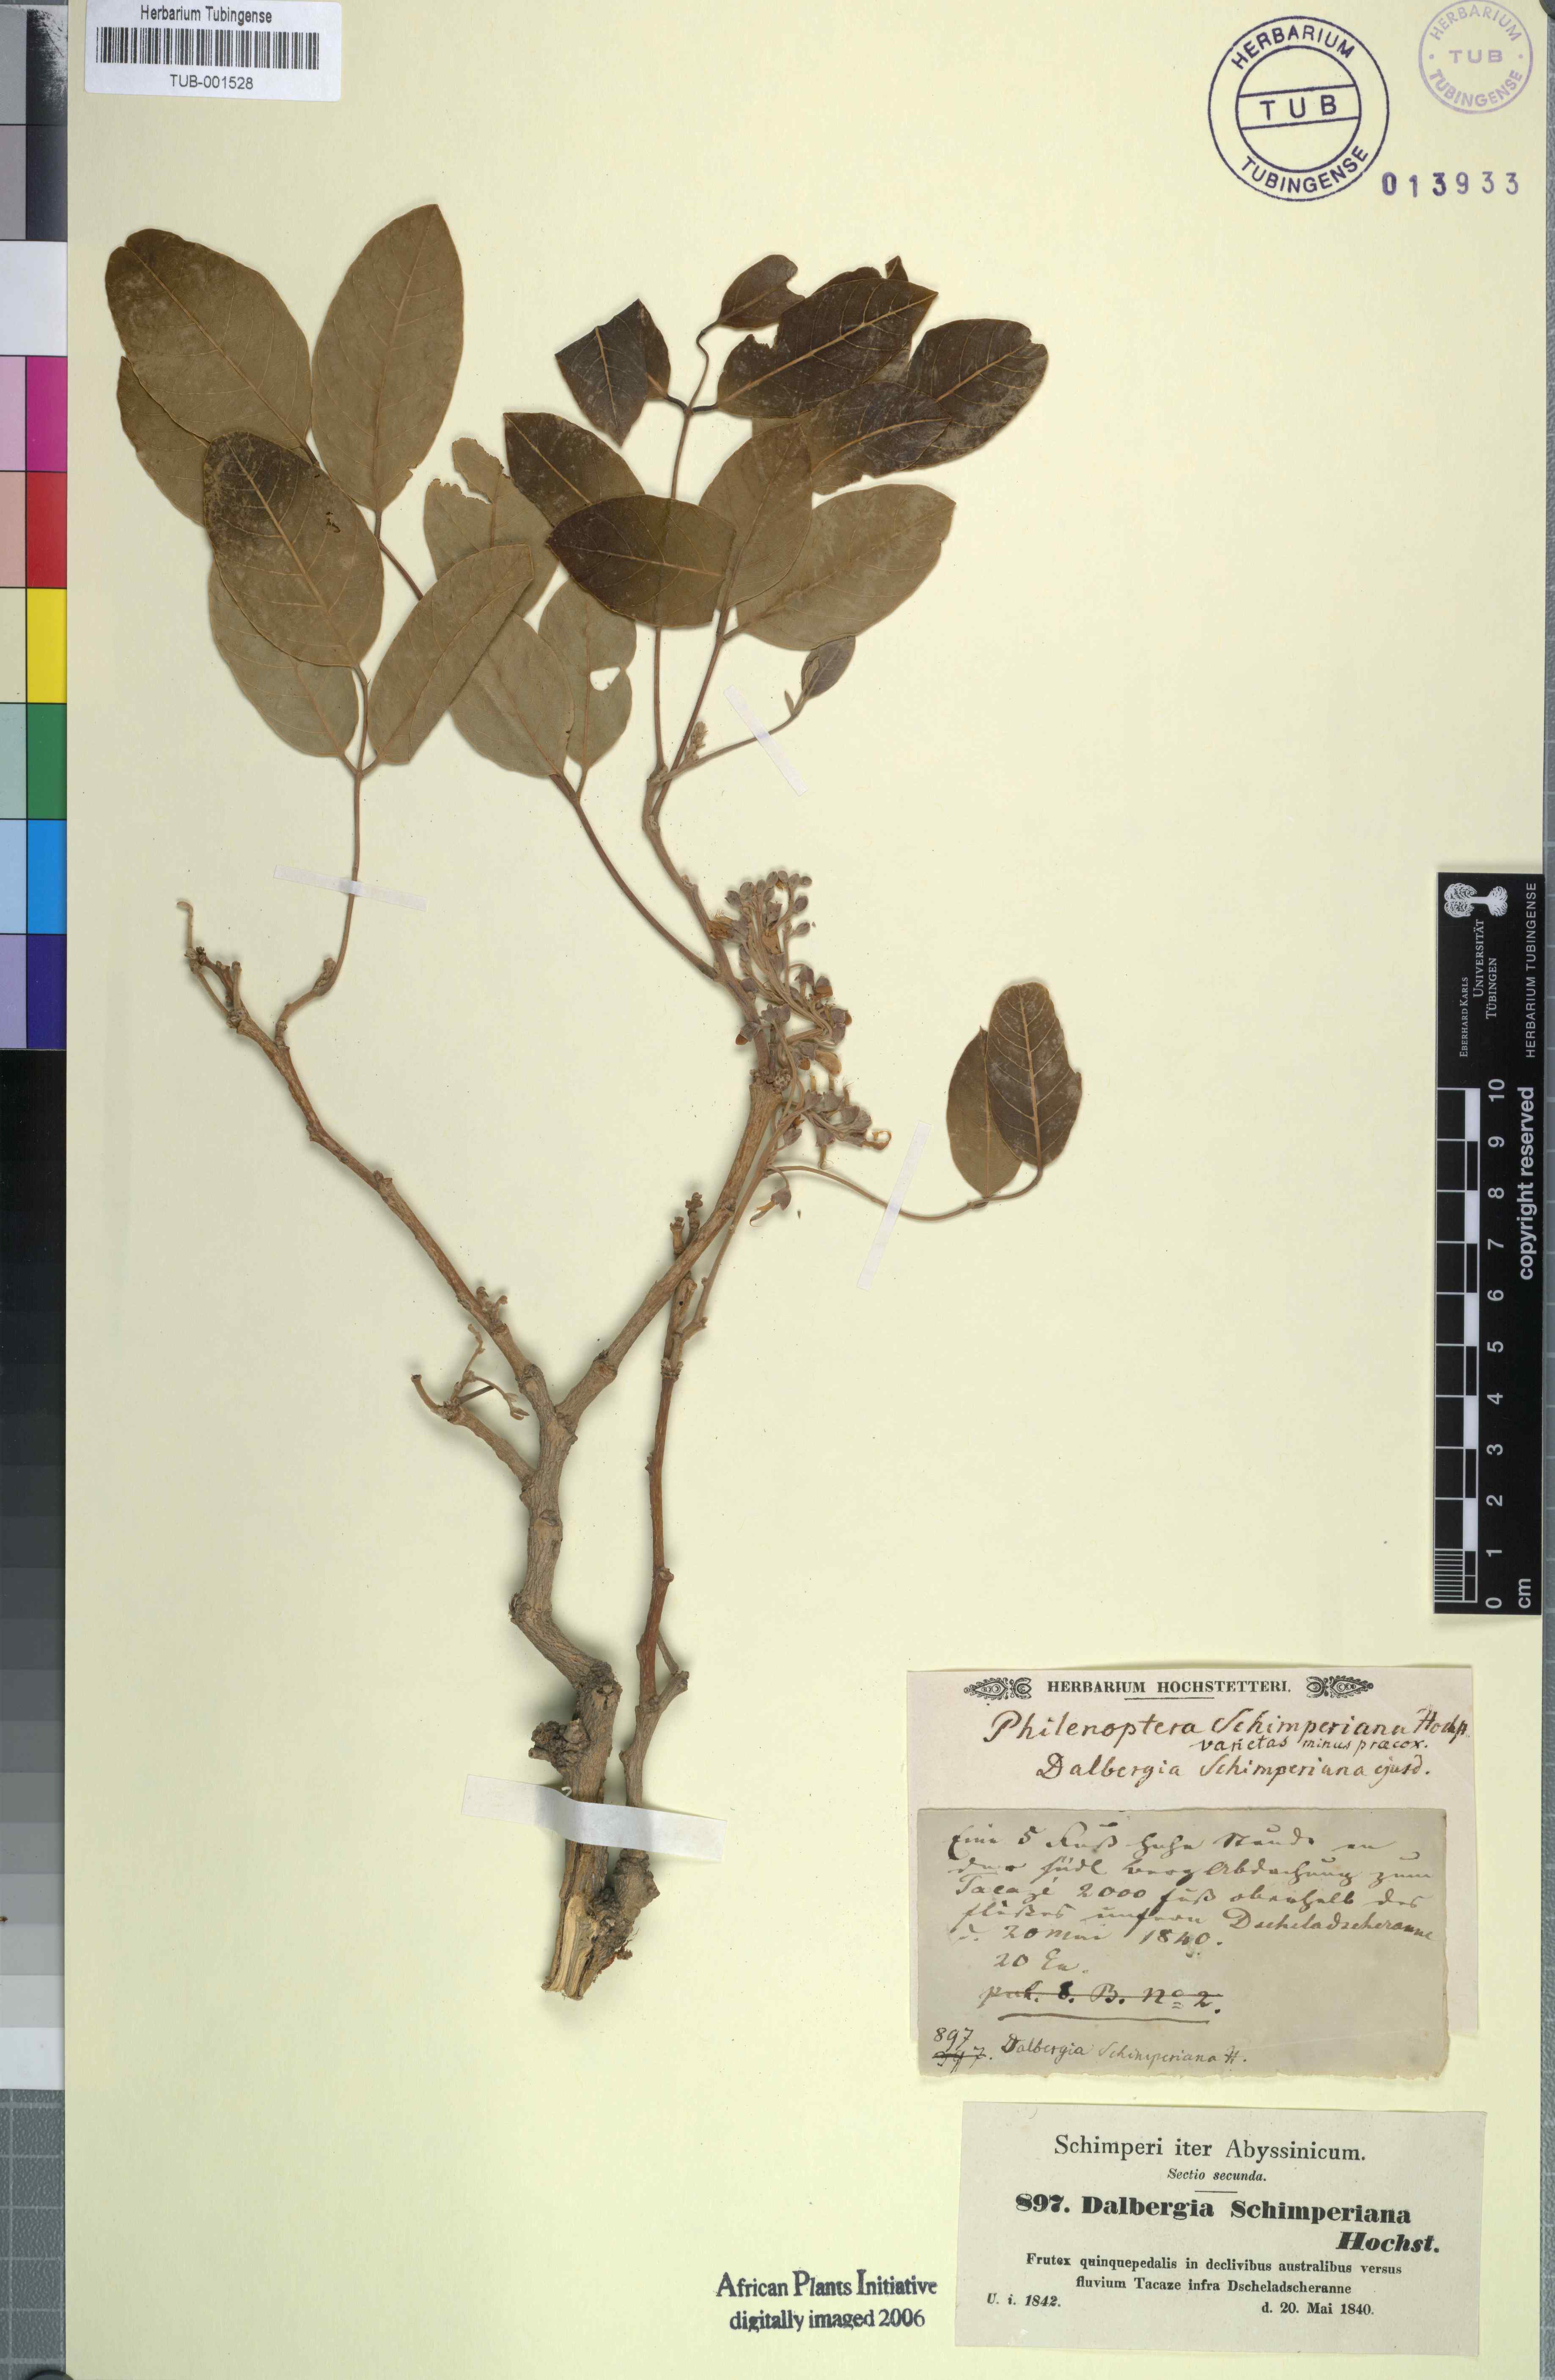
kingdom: Plantae
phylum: Tracheophyta
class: Magnoliopsida
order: Fabales
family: Fabaceae
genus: Philenoptera
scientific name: Philenoptera laxiflora
